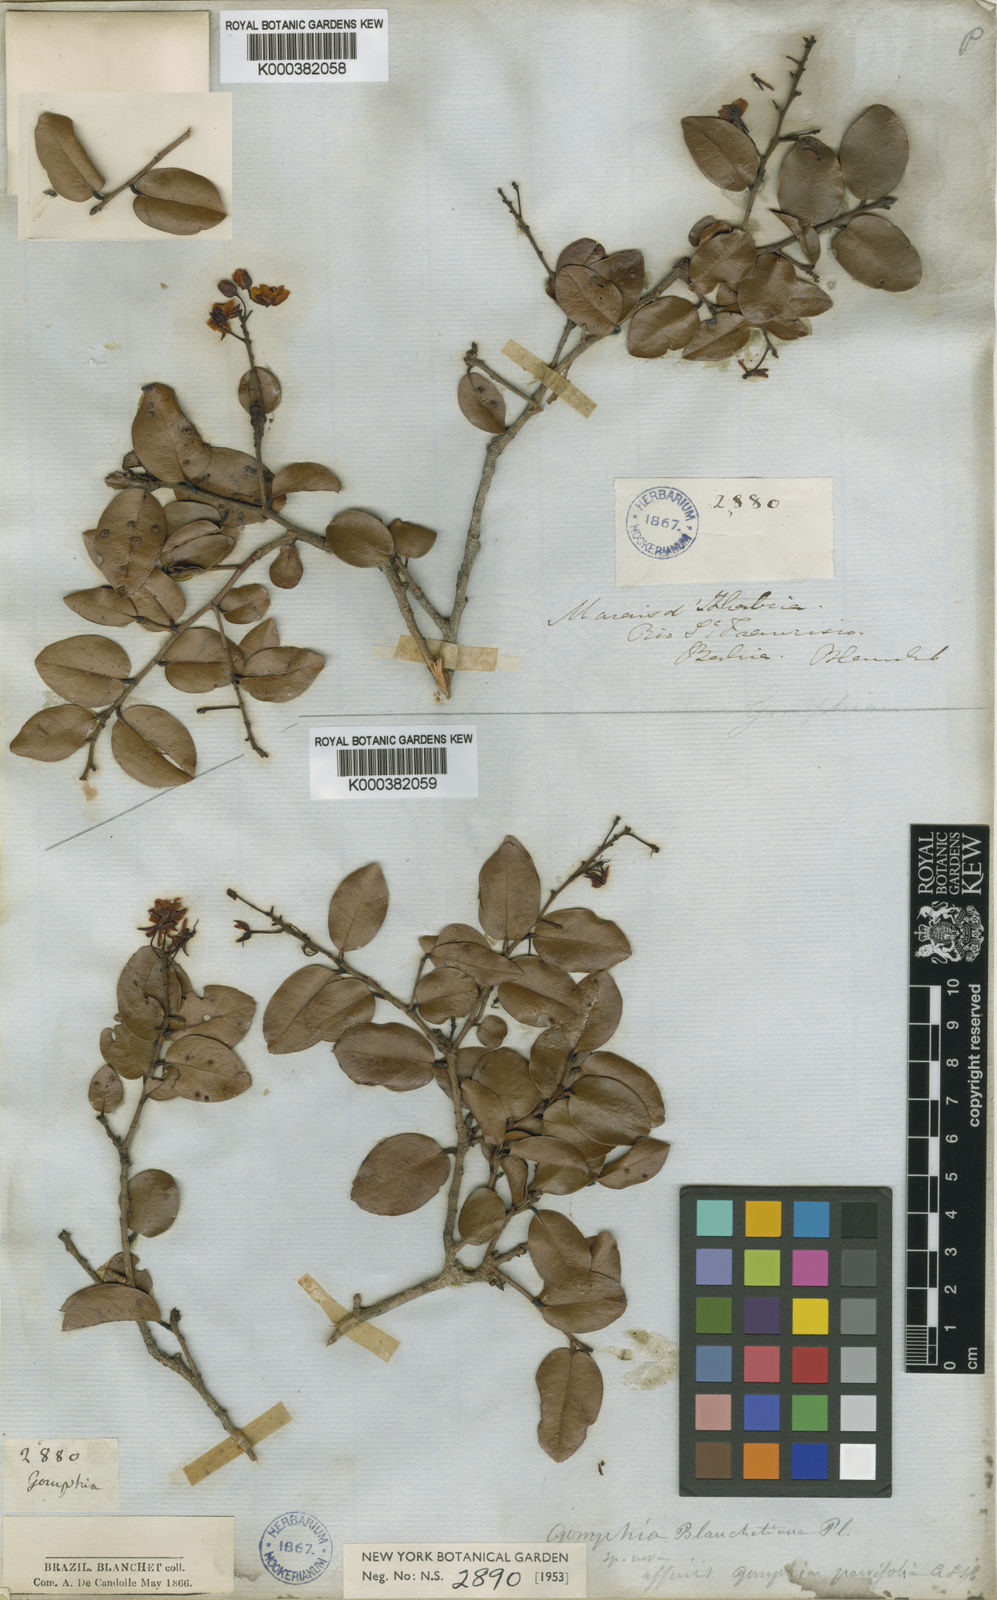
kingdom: Plantae
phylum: Tracheophyta
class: Magnoliopsida
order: Malpighiales
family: Ochnaceae
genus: Ouratea
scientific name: Ouratea blanchetiana
